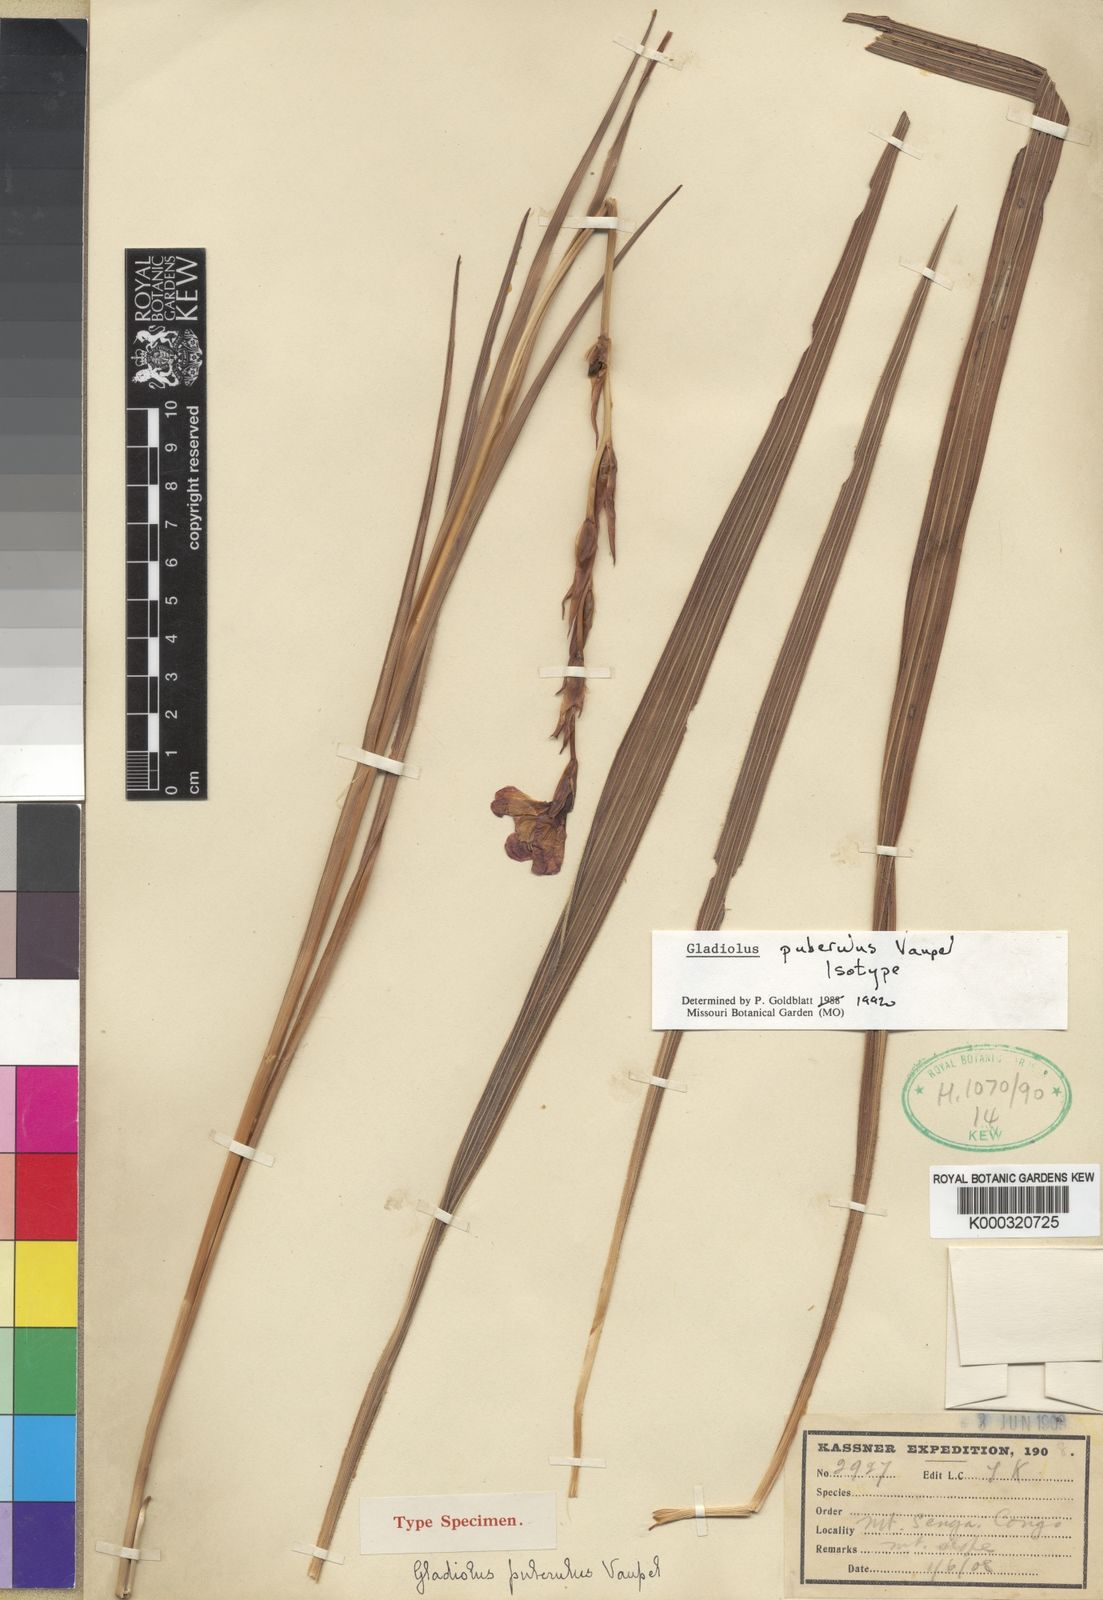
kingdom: Plantae
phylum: Tracheophyta
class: Liliopsida
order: Asparagales
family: Iridaceae
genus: Gladiolus
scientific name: Gladiolus puberulus
